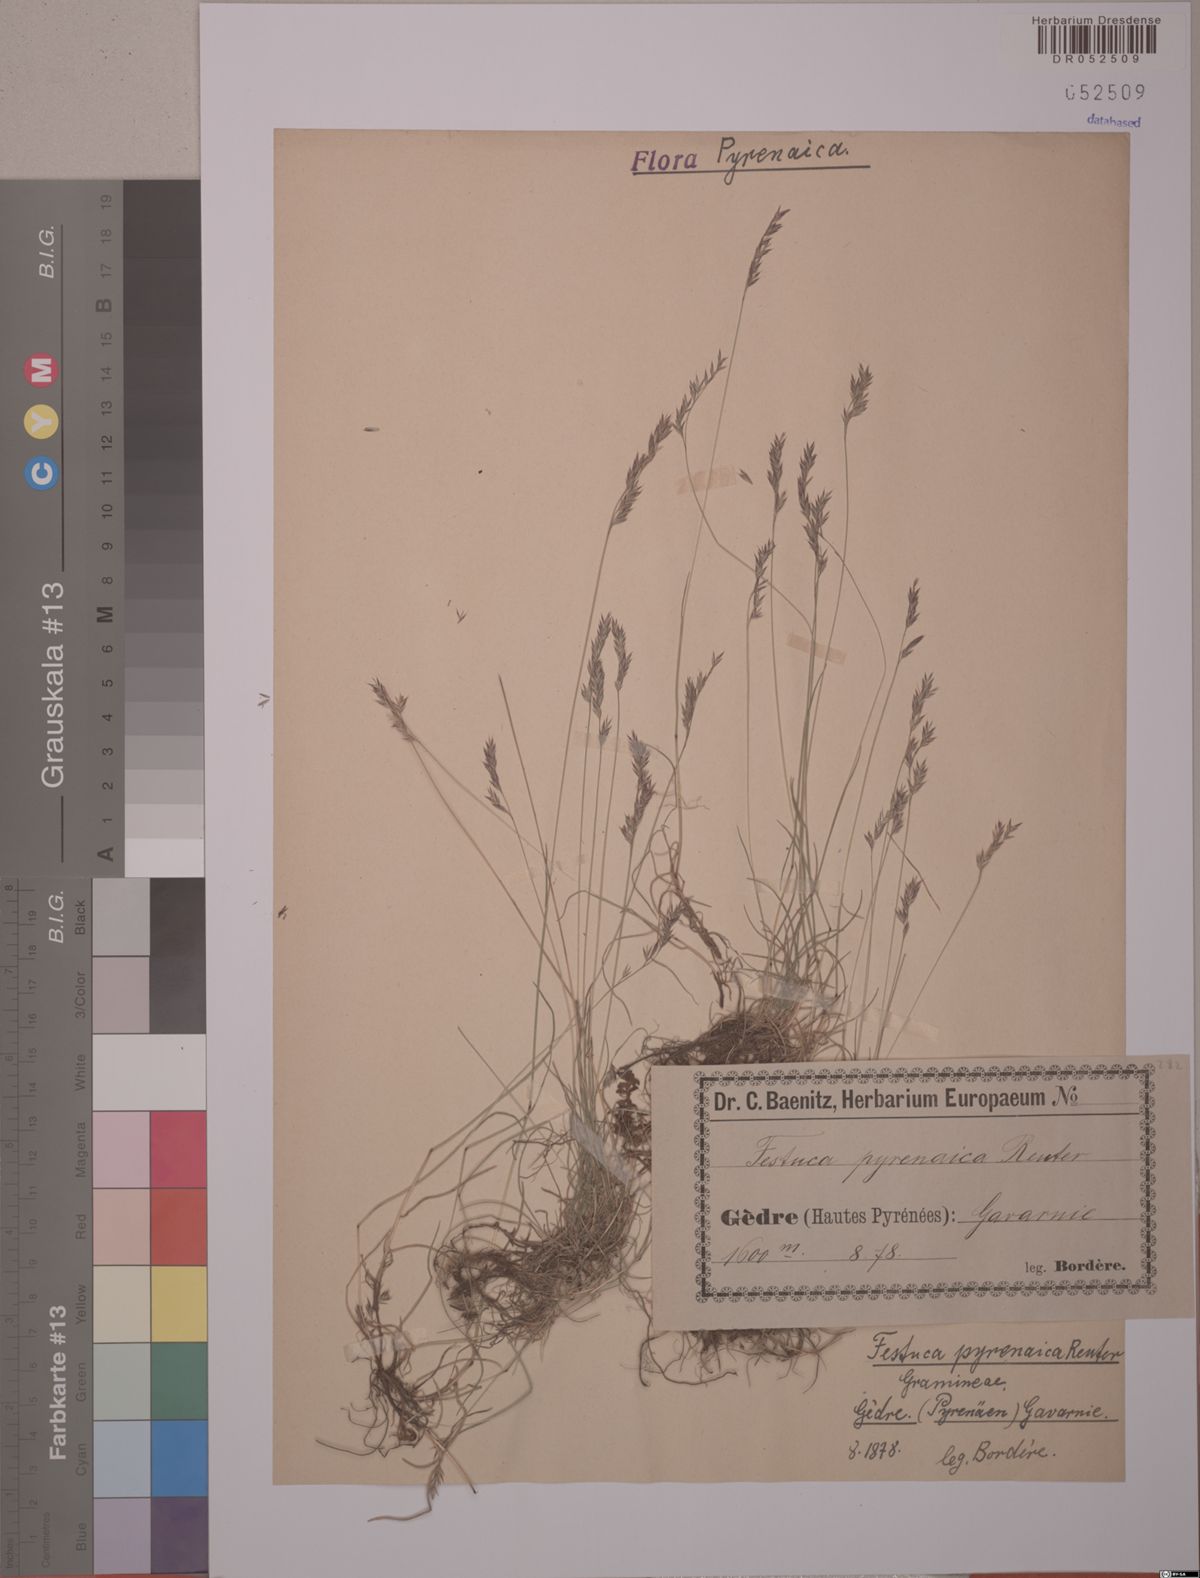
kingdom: Plantae
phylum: Tracheophyta
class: Liliopsida
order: Poales
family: Poaceae
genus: Festuca
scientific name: Festuca pyrenaica
